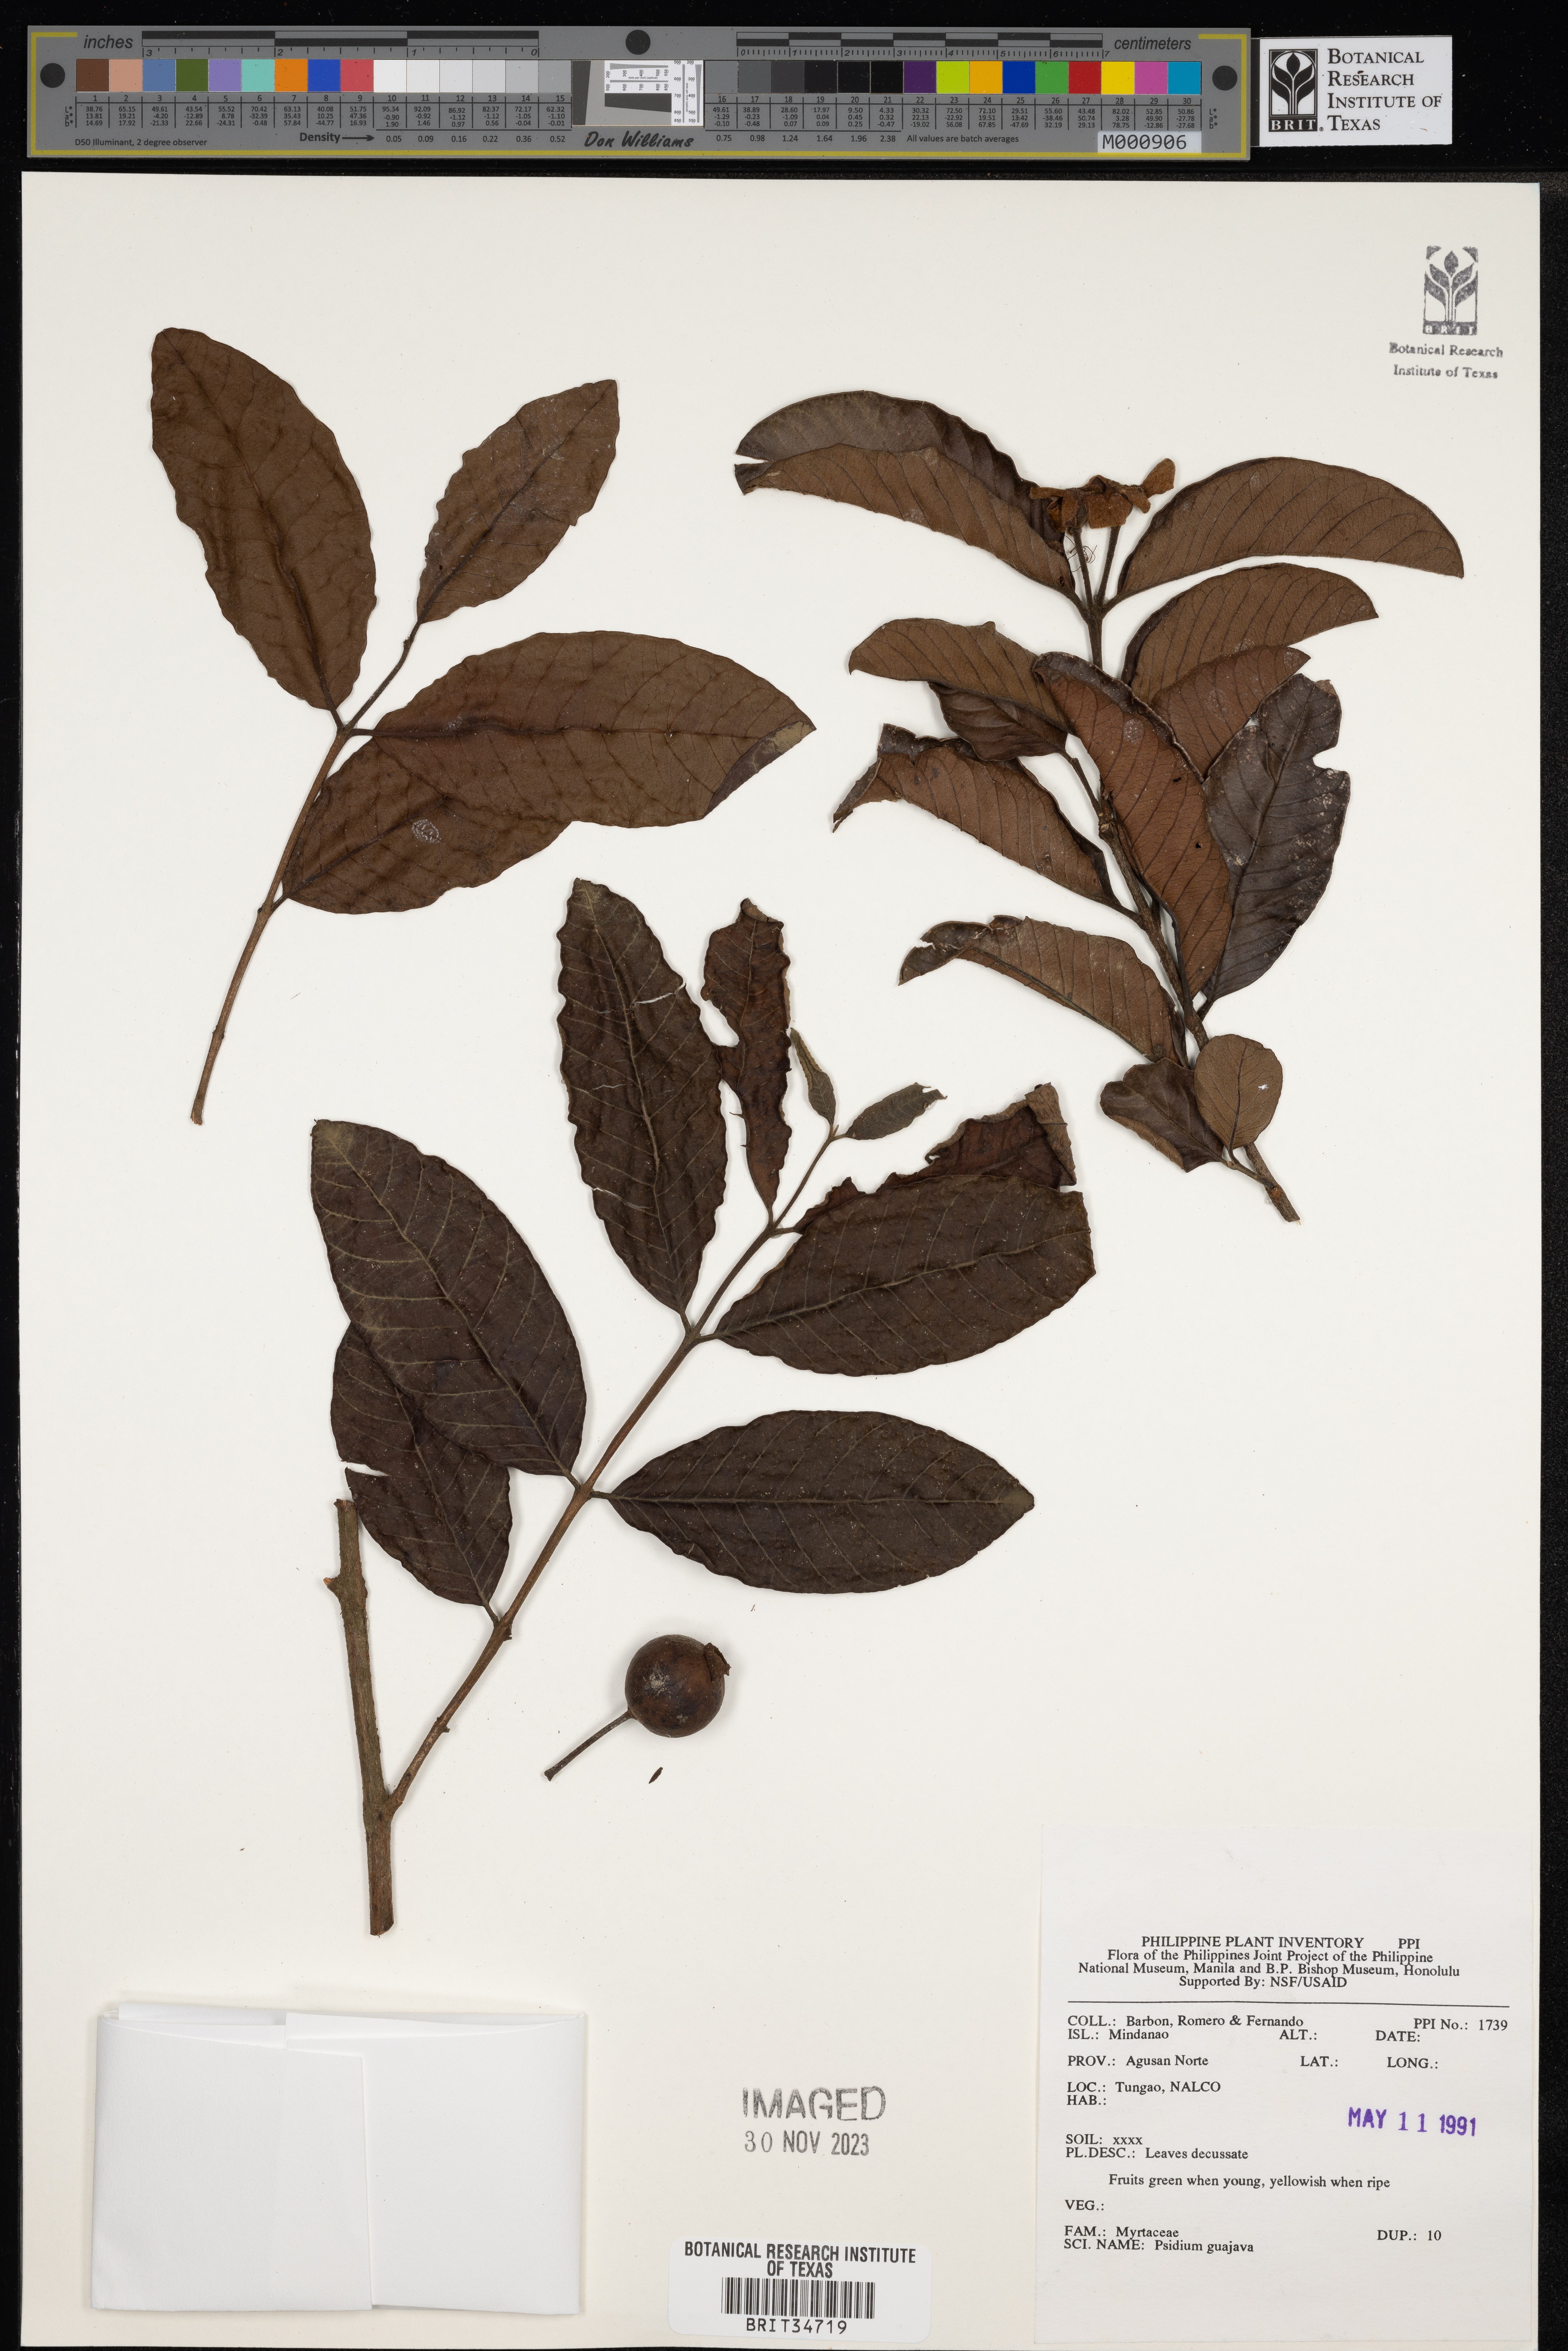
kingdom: Plantae
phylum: Tracheophyta
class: Magnoliopsida
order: Myrtales
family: Myrtaceae
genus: Psidium
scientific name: Psidium guajava
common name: Guava
